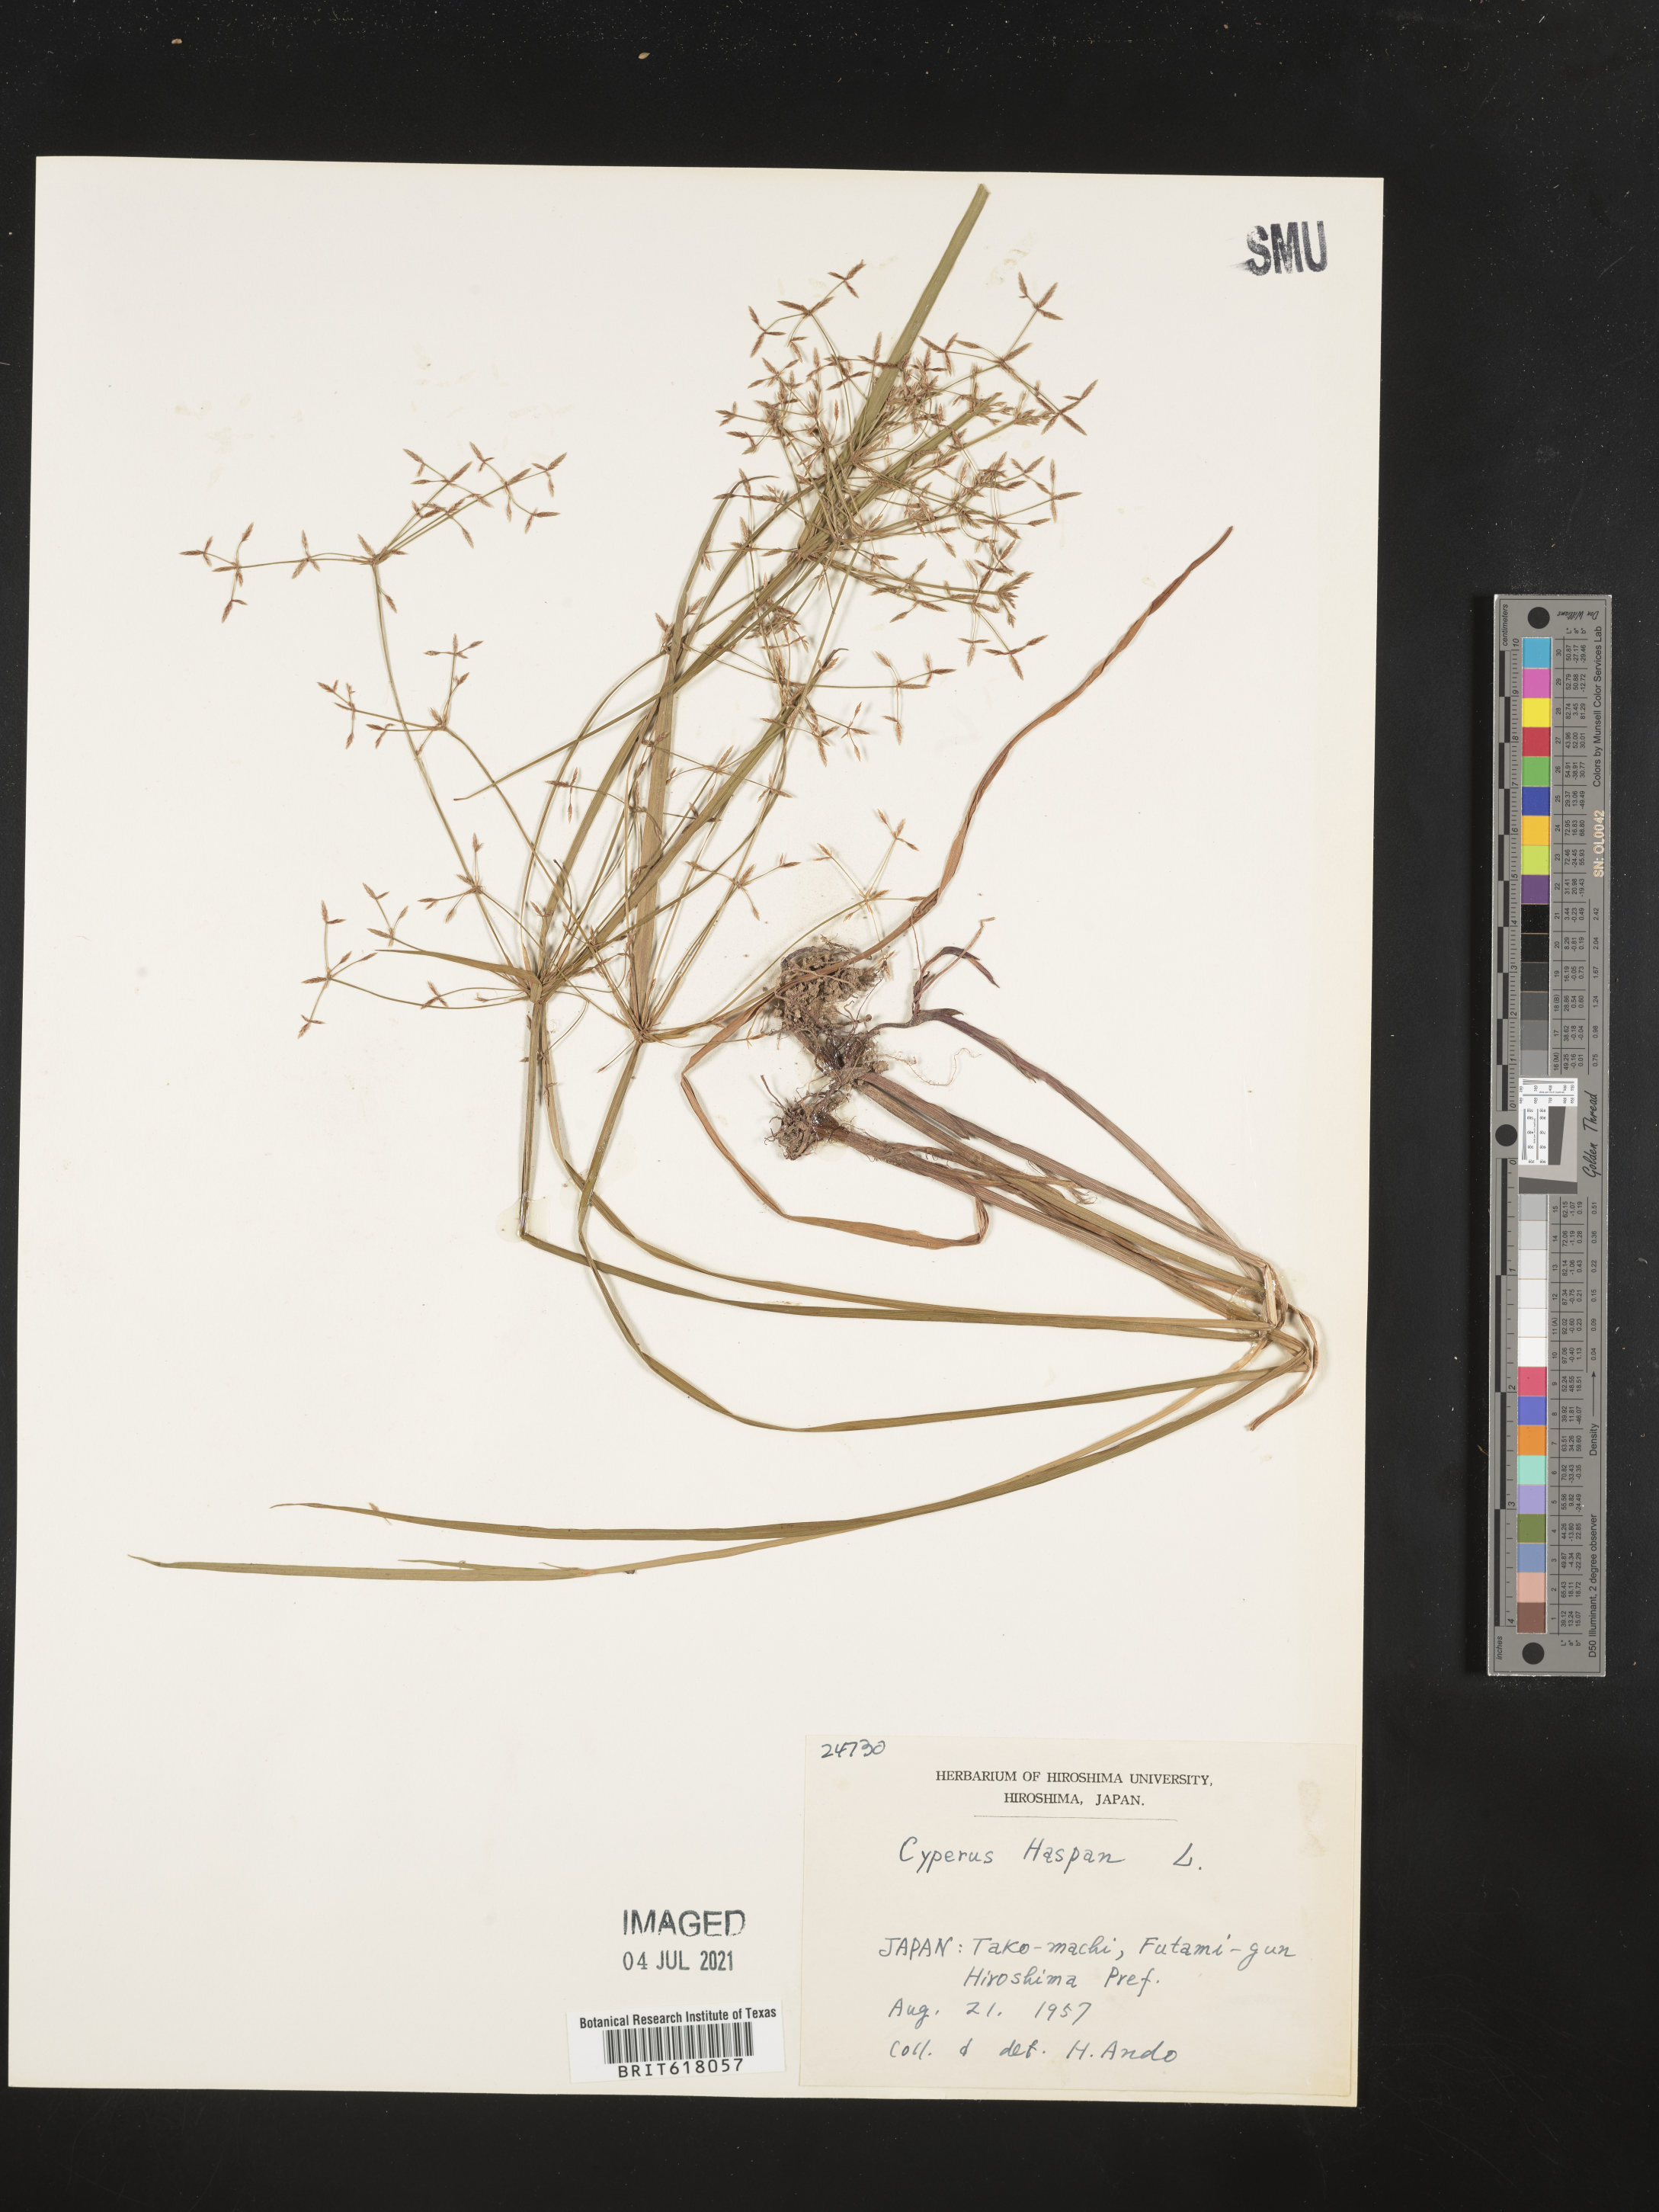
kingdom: Plantae
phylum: Tracheophyta
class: Liliopsida
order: Poales
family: Cyperaceae
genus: Cyperus
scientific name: Cyperus haspan
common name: Haspan flatsedge
